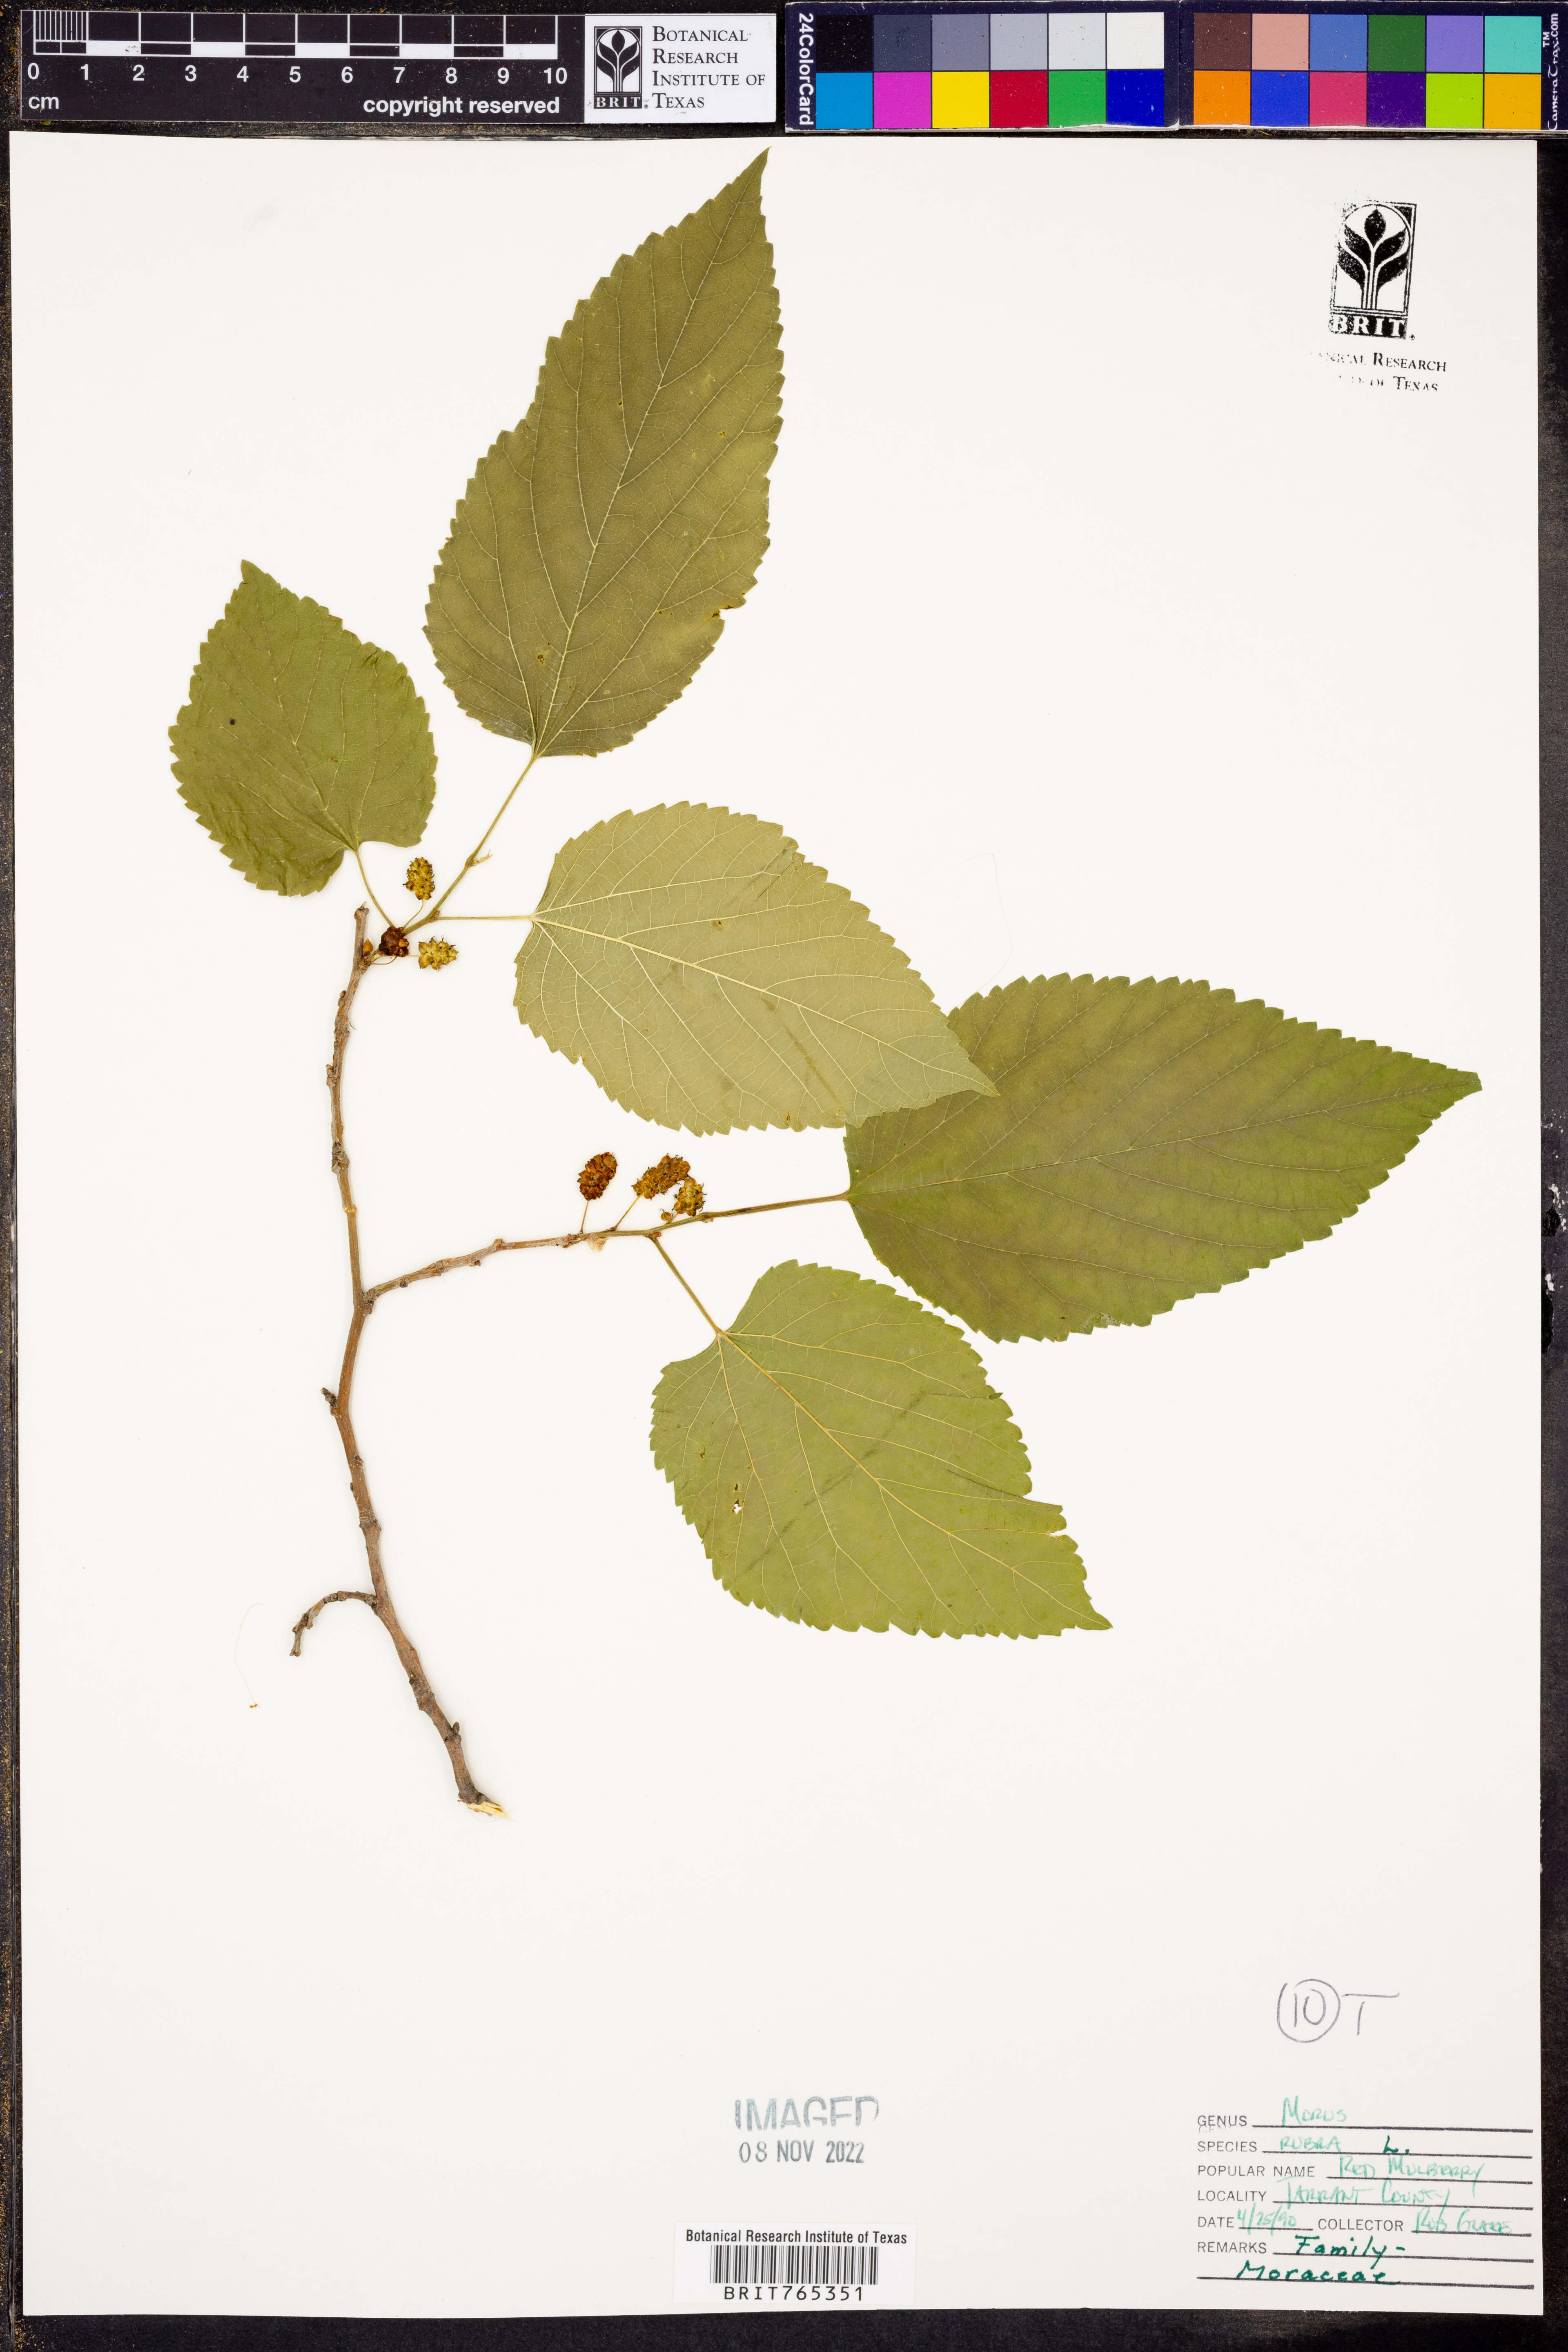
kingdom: Plantae
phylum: Tracheophyta
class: Magnoliopsida
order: Rosales
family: Moraceae
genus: Morus
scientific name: Morus rubra
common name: Red mulberry
